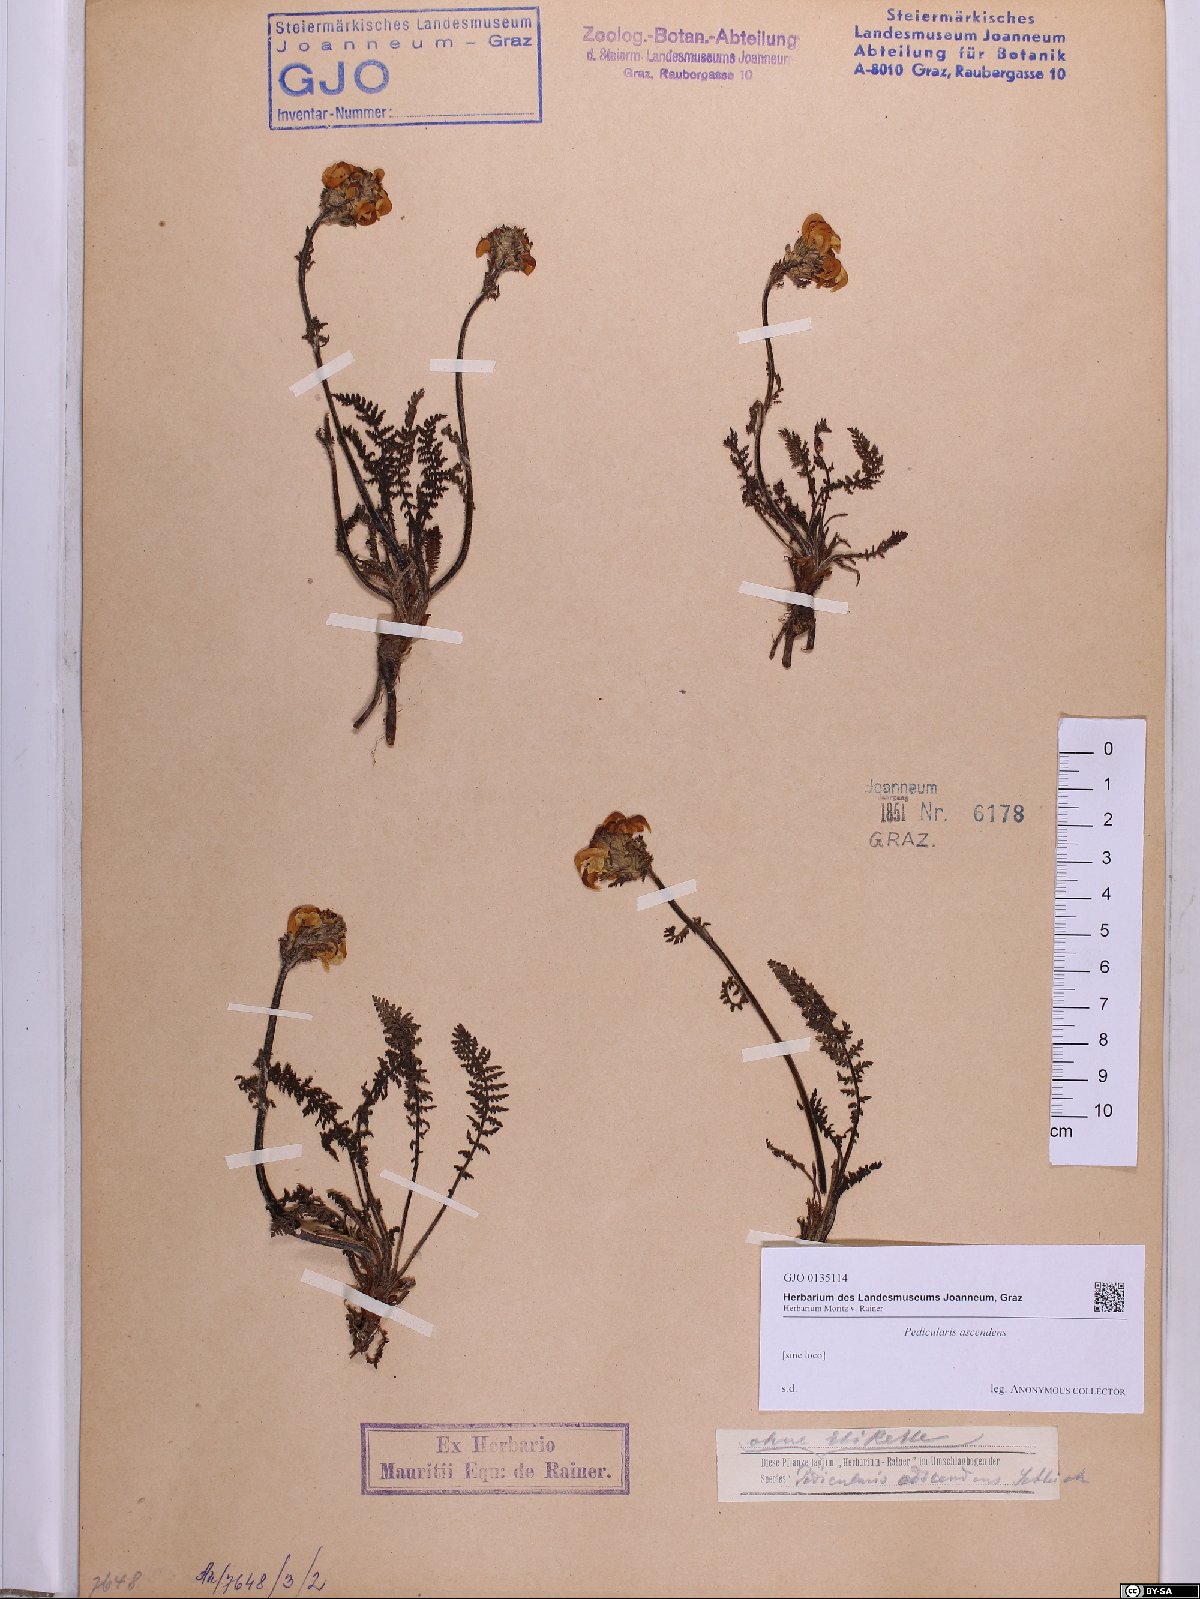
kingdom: Plantae
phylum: Tracheophyta
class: Magnoliopsida
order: Lamiales
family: Orobanchaceae
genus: Pedicularis
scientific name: Pedicularis ascendens
